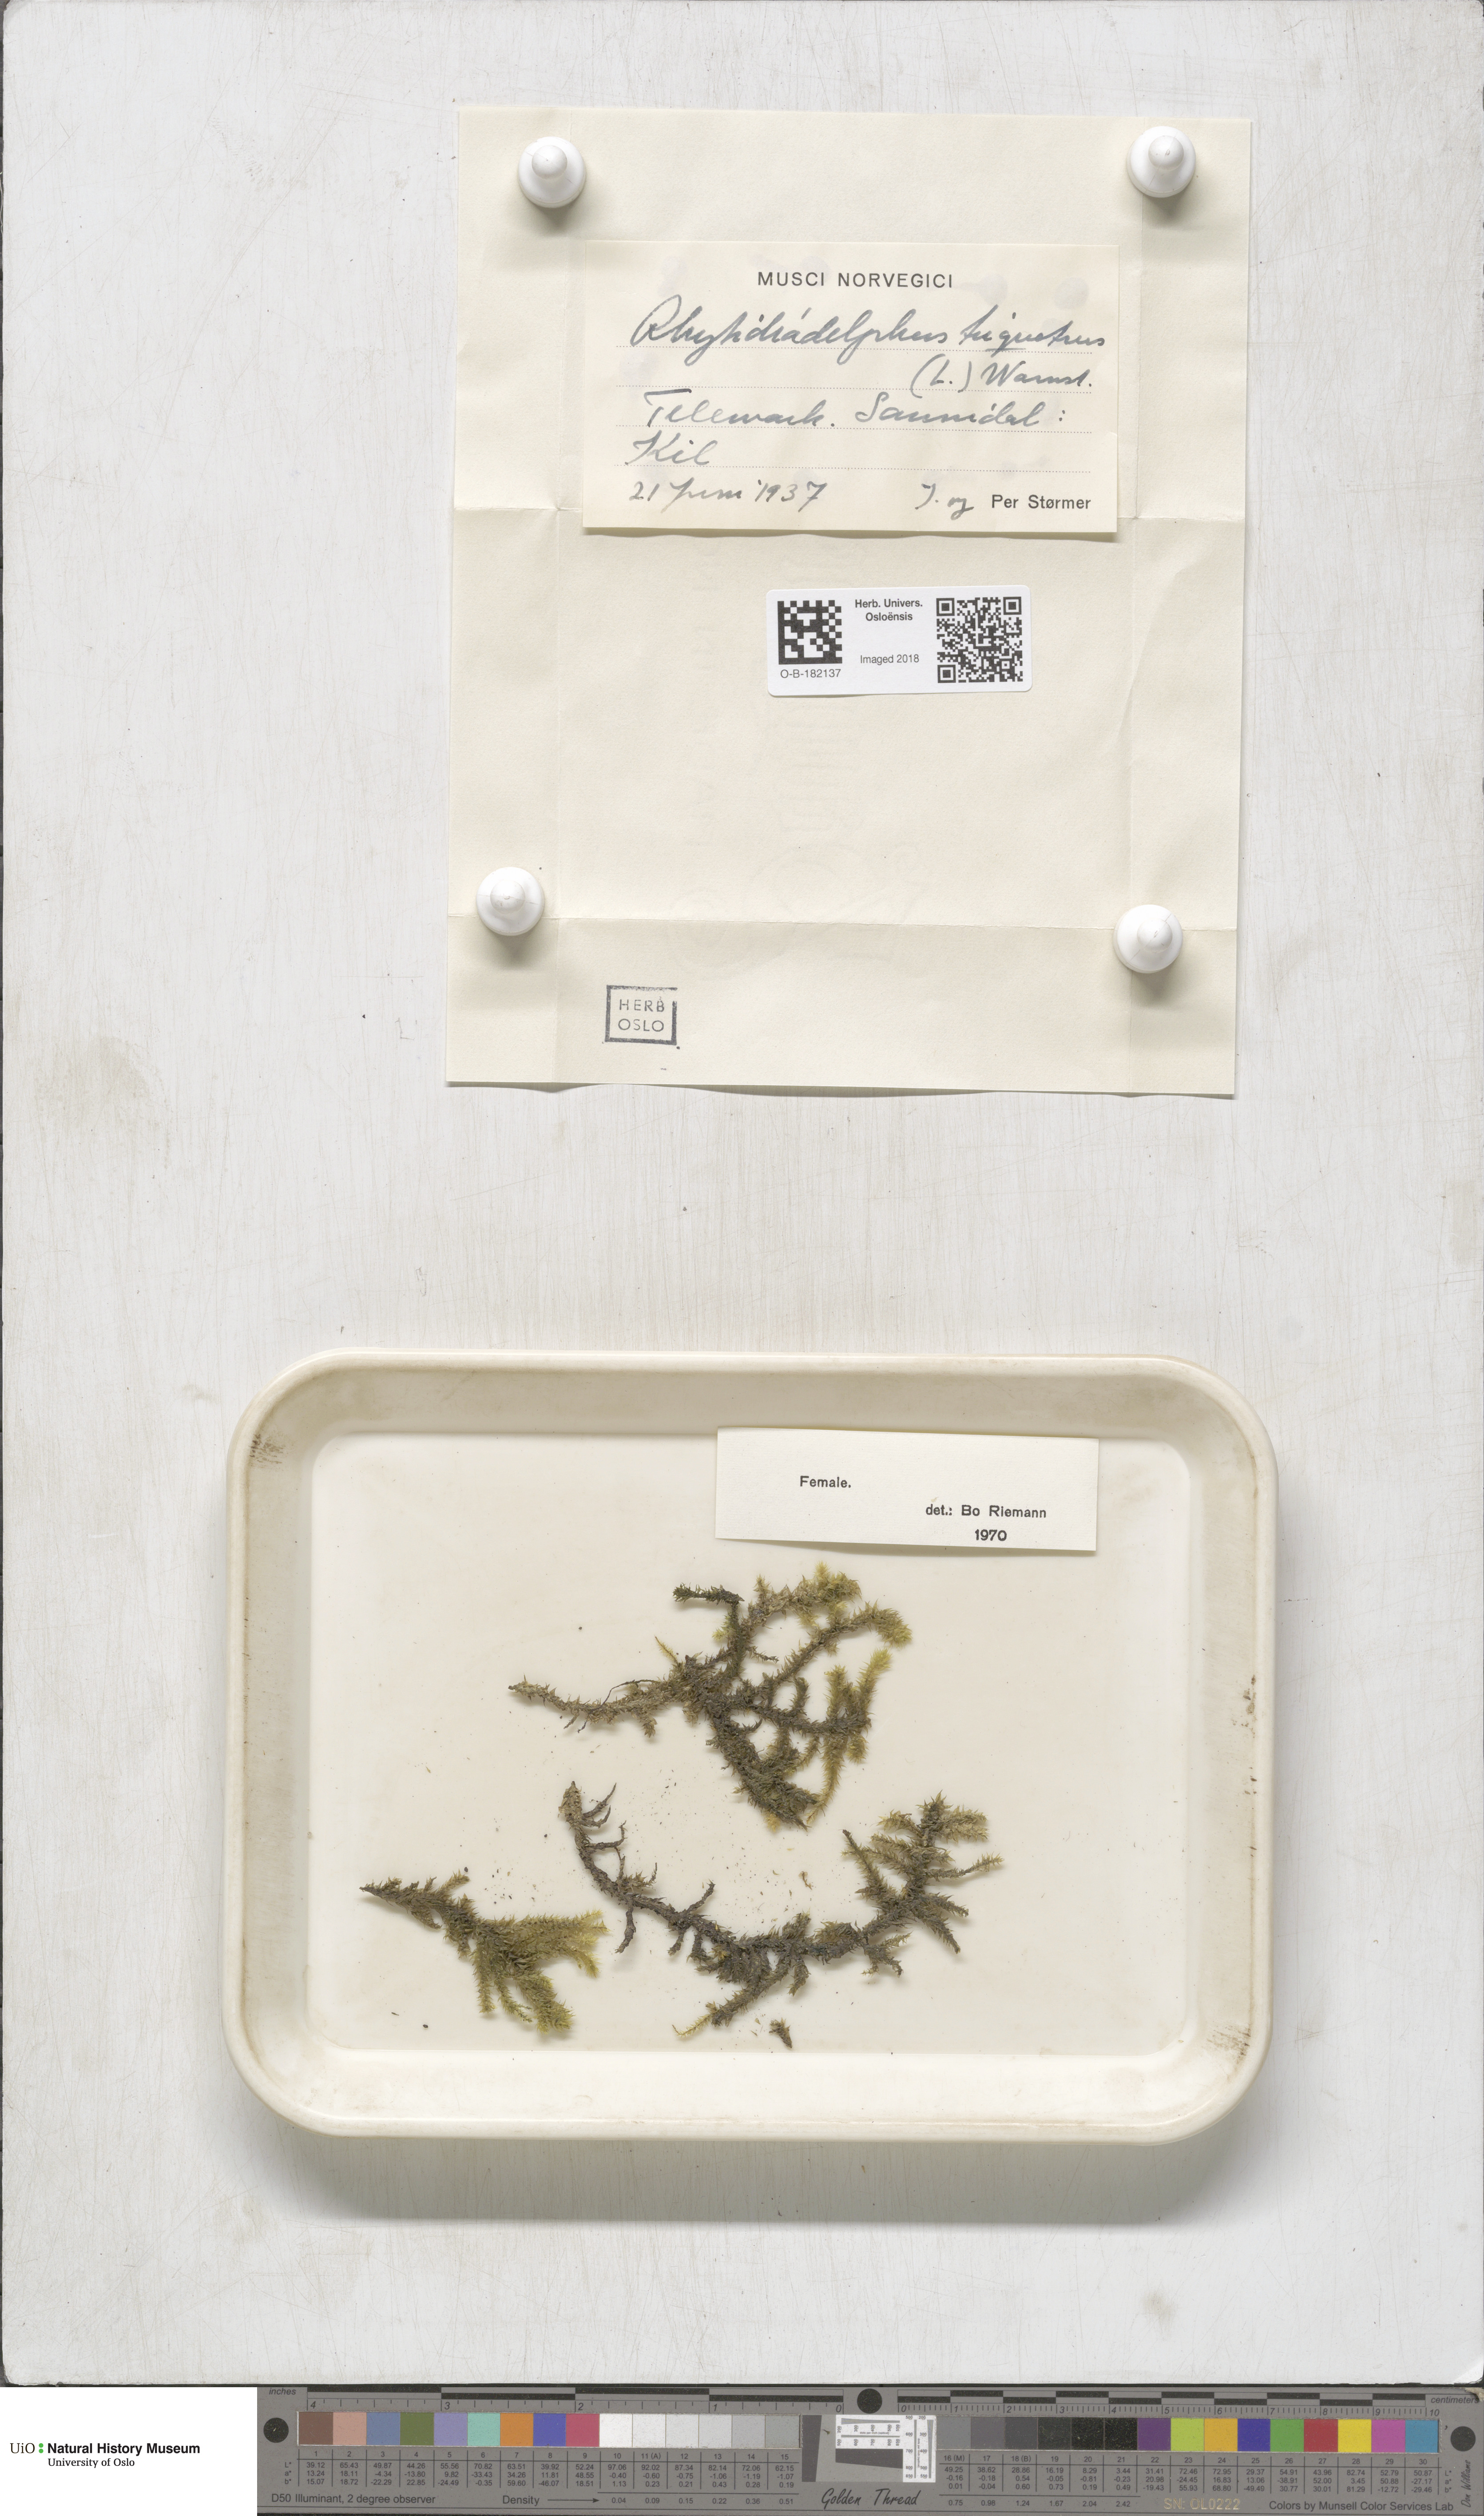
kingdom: Plantae
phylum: Bryophyta
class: Bryopsida
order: Hypnales
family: Hylocomiaceae
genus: Hylocomiadelphus
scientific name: Hylocomiadelphus triquetrus
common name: Rough goose neck moss
